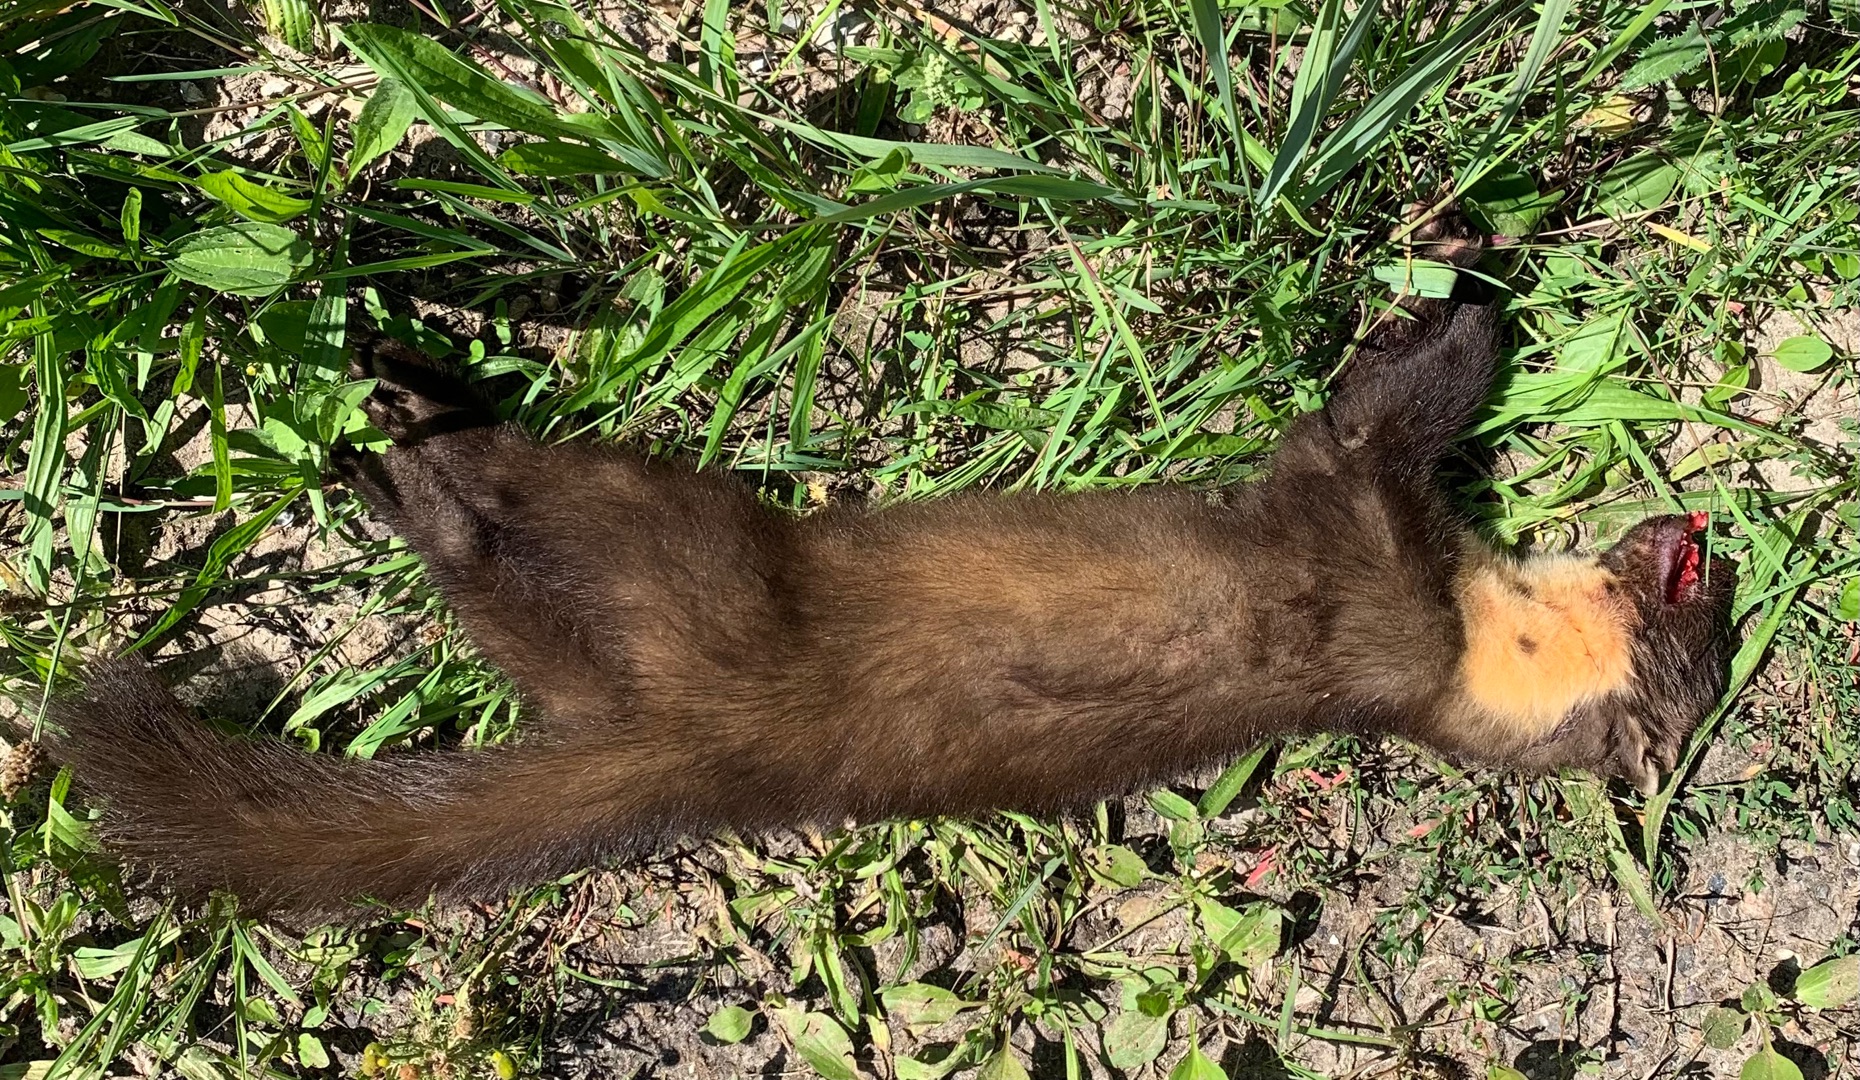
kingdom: Animalia
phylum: Chordata
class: Mammalia
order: Carnivora
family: Mustelidae
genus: Martes
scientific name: Martes martes
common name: Skovmår
